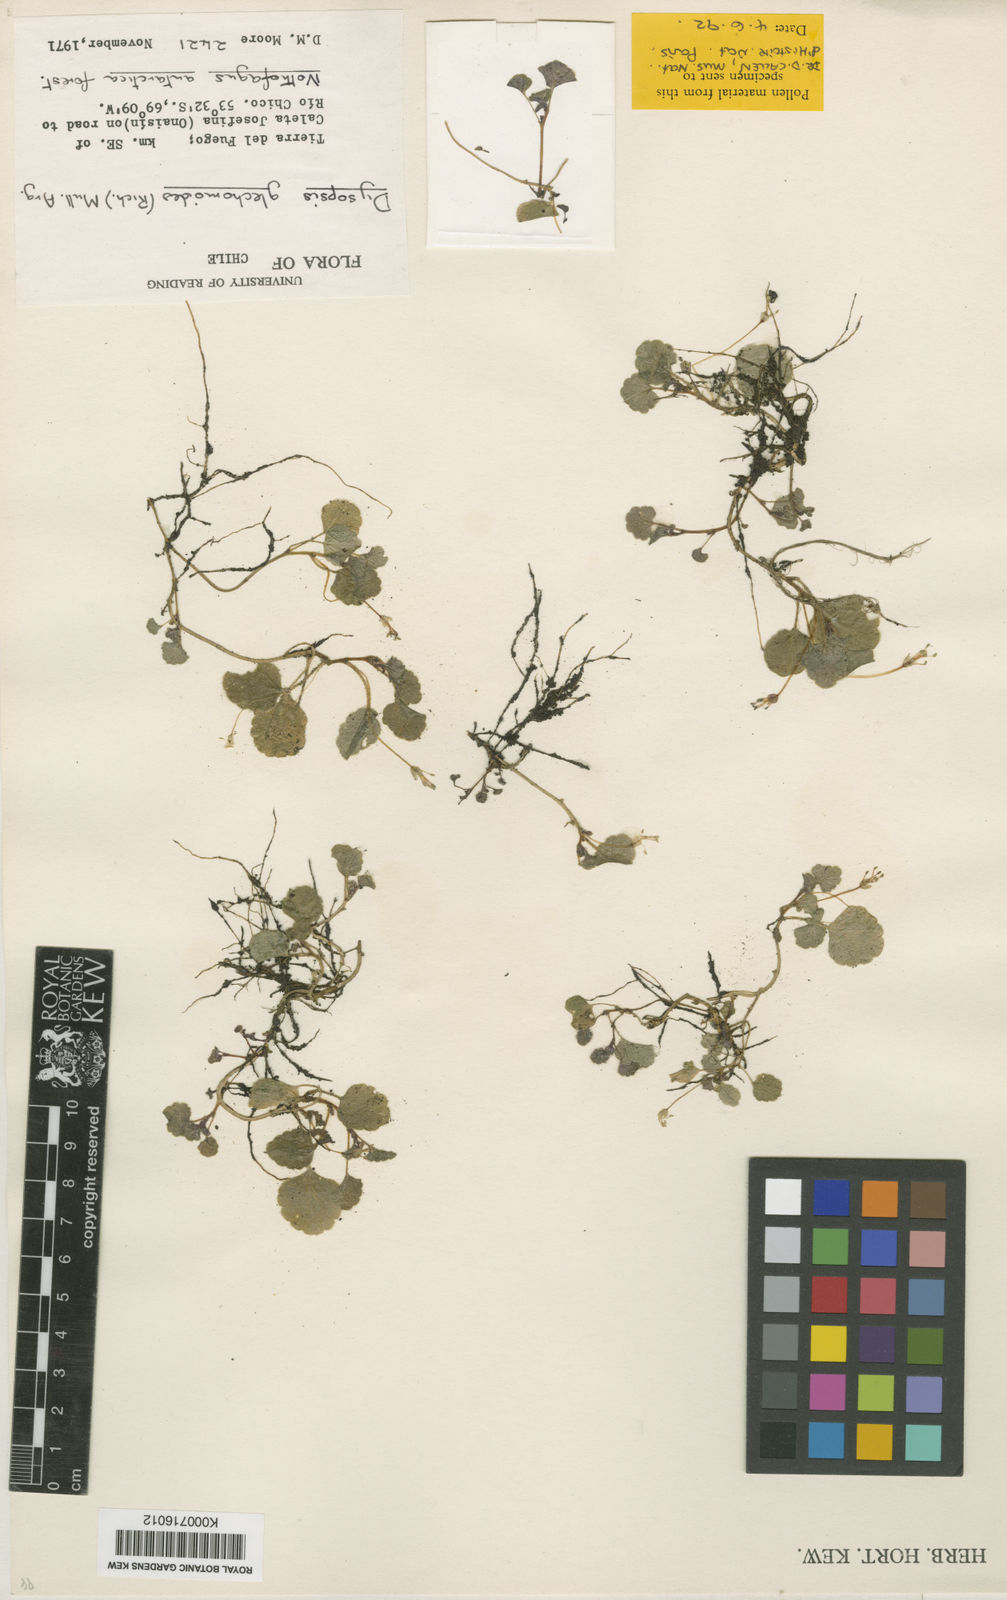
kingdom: Plantae
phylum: Tracheophyta
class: Magnoliopsida
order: Malpighiales
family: Euphorbiaceae
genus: Dysopsis
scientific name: Dysopsis
